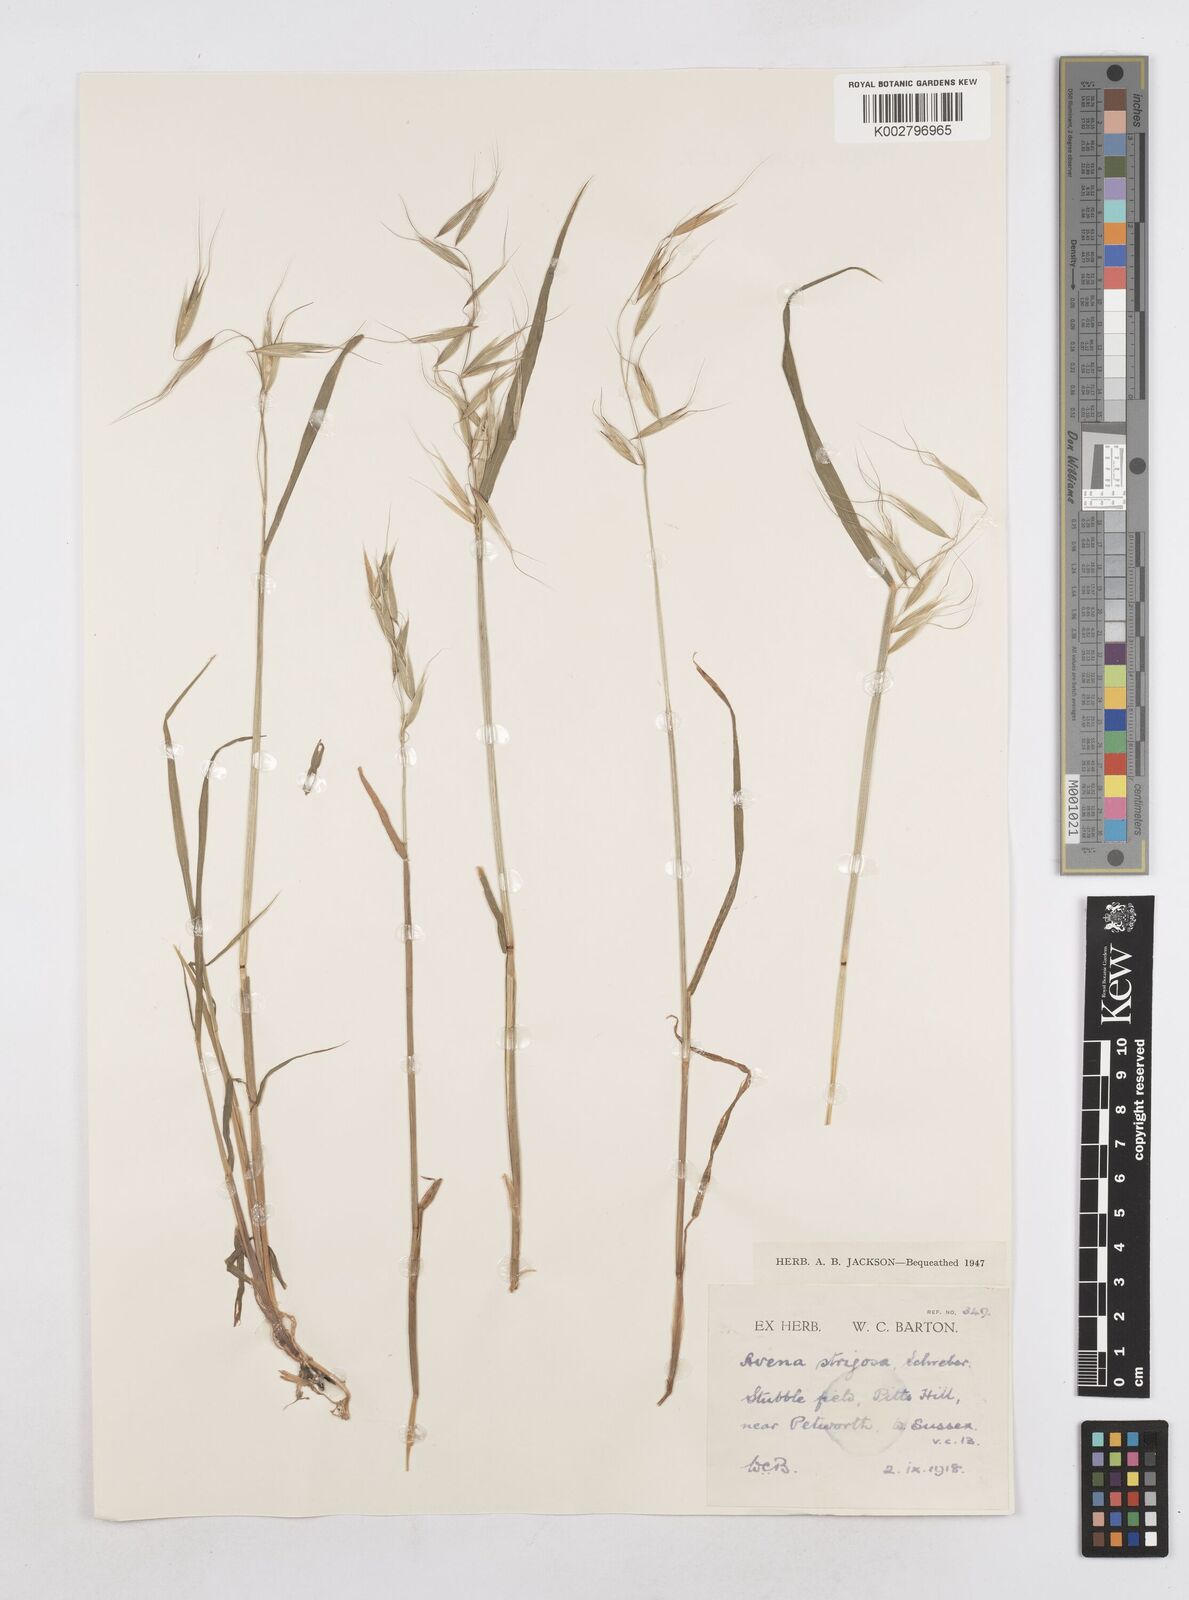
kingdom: Plantae
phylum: Tracheophyta
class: Liliopsida
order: Poales
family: Poaceae
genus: Avena
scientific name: Avena strigosa
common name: Bristle oat
